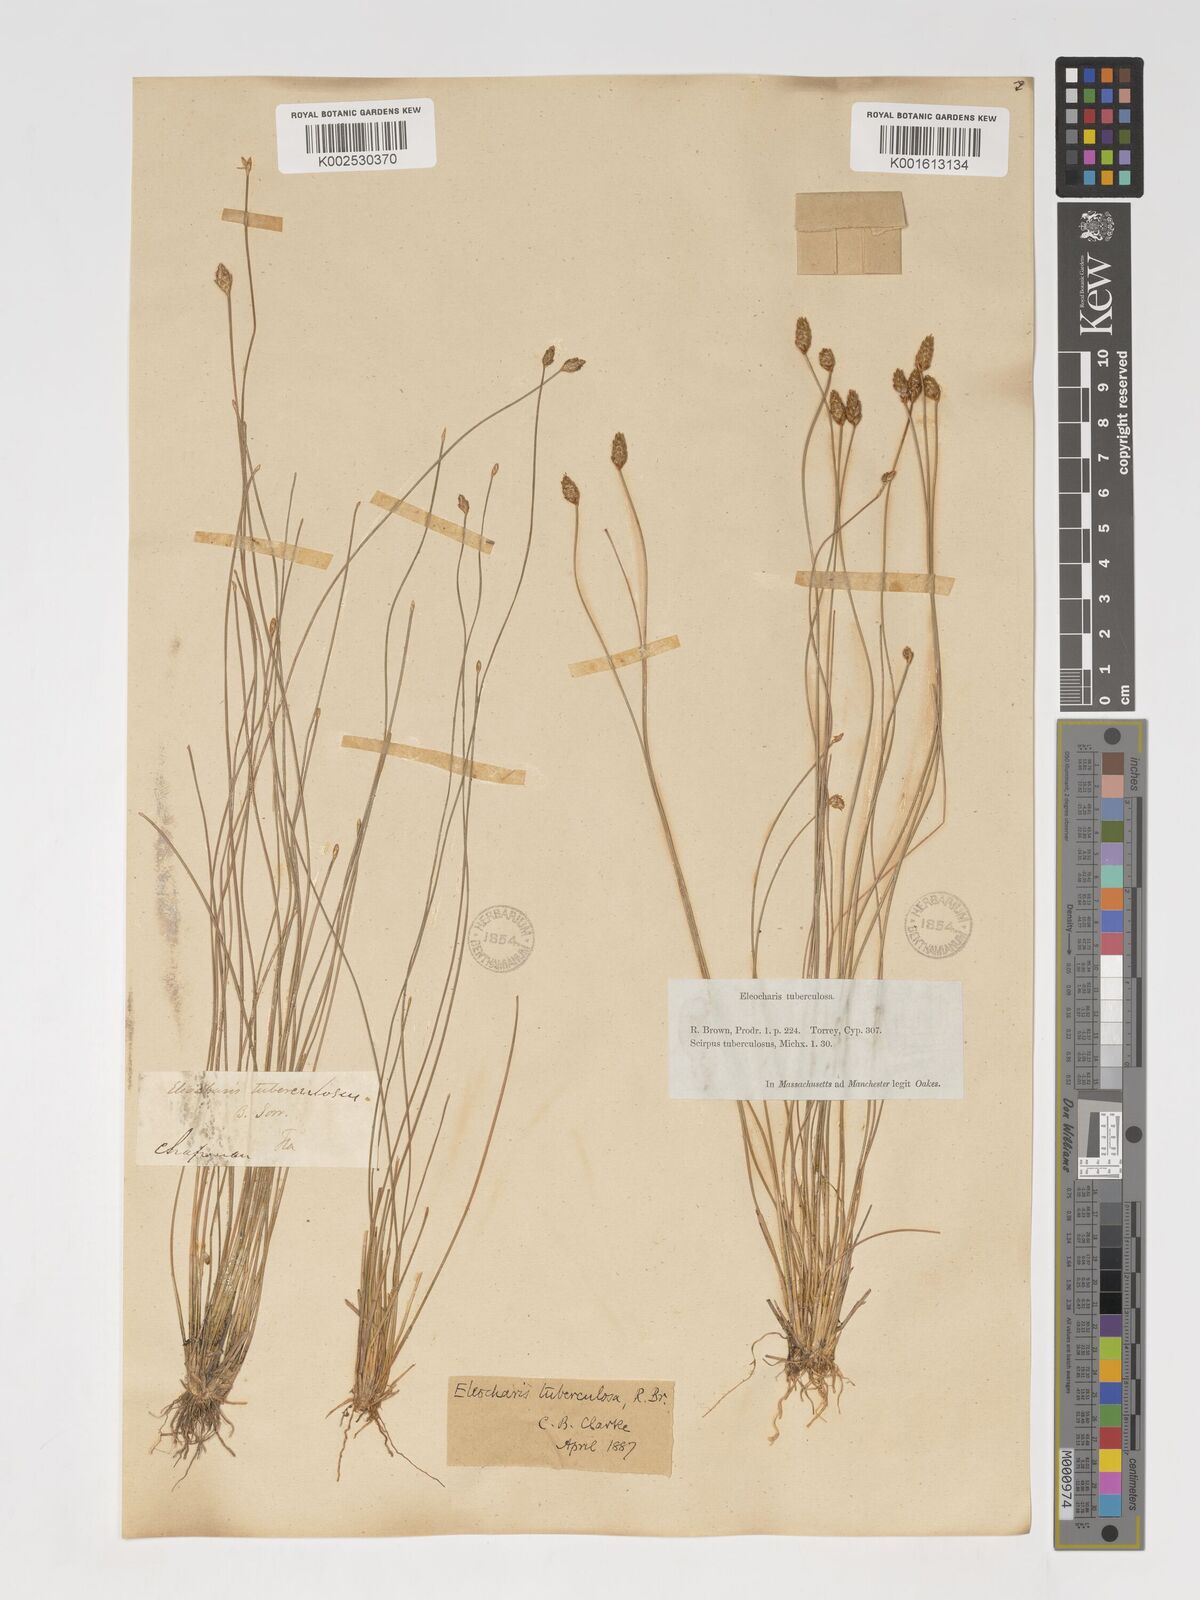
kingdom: Plantae
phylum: Tracheophyta
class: Liliopsida
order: Poales
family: Cyperaceae
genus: Eleocharis
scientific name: Eleocharis tuberculosa
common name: Cone-cup spikerush
